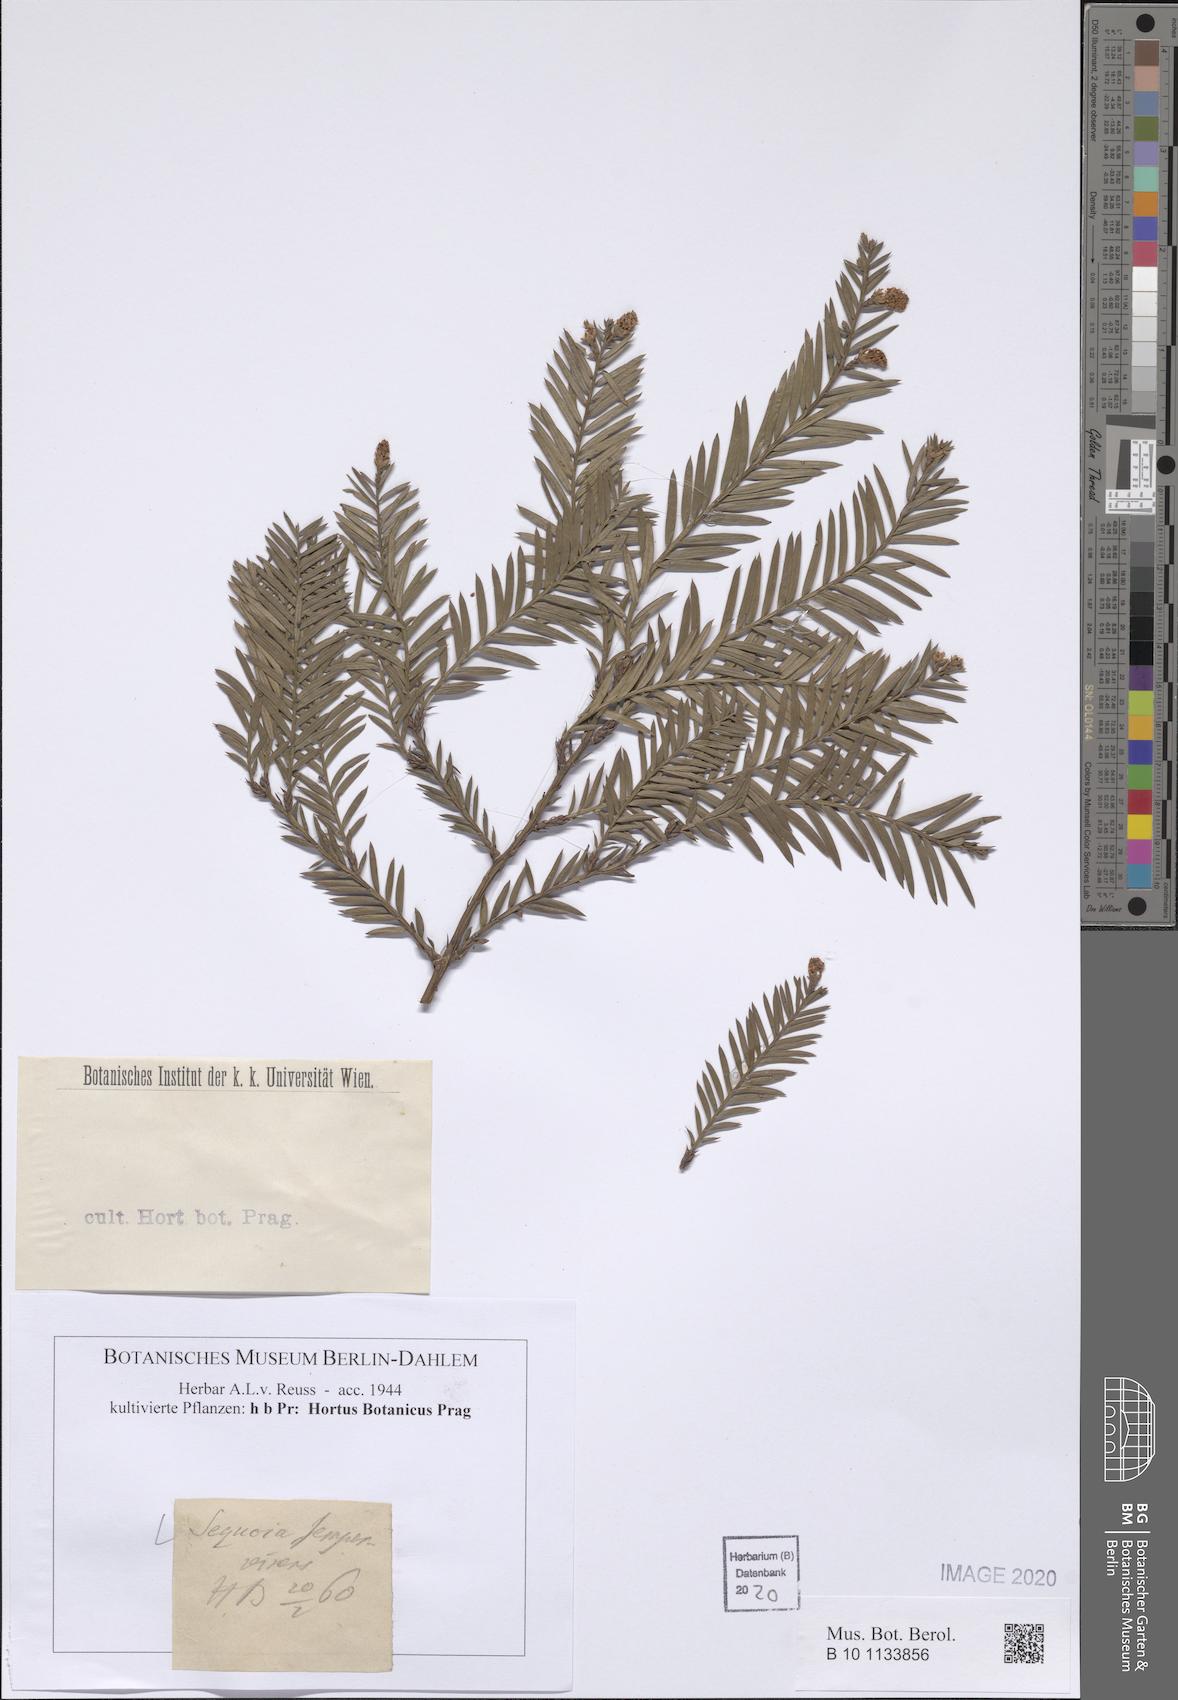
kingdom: Plantae
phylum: Tracheophyta
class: Pinopsida
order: Pinales
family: Cupressaceae
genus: Sequoia
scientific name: Sequoia sempervirens
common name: Coast redwood
